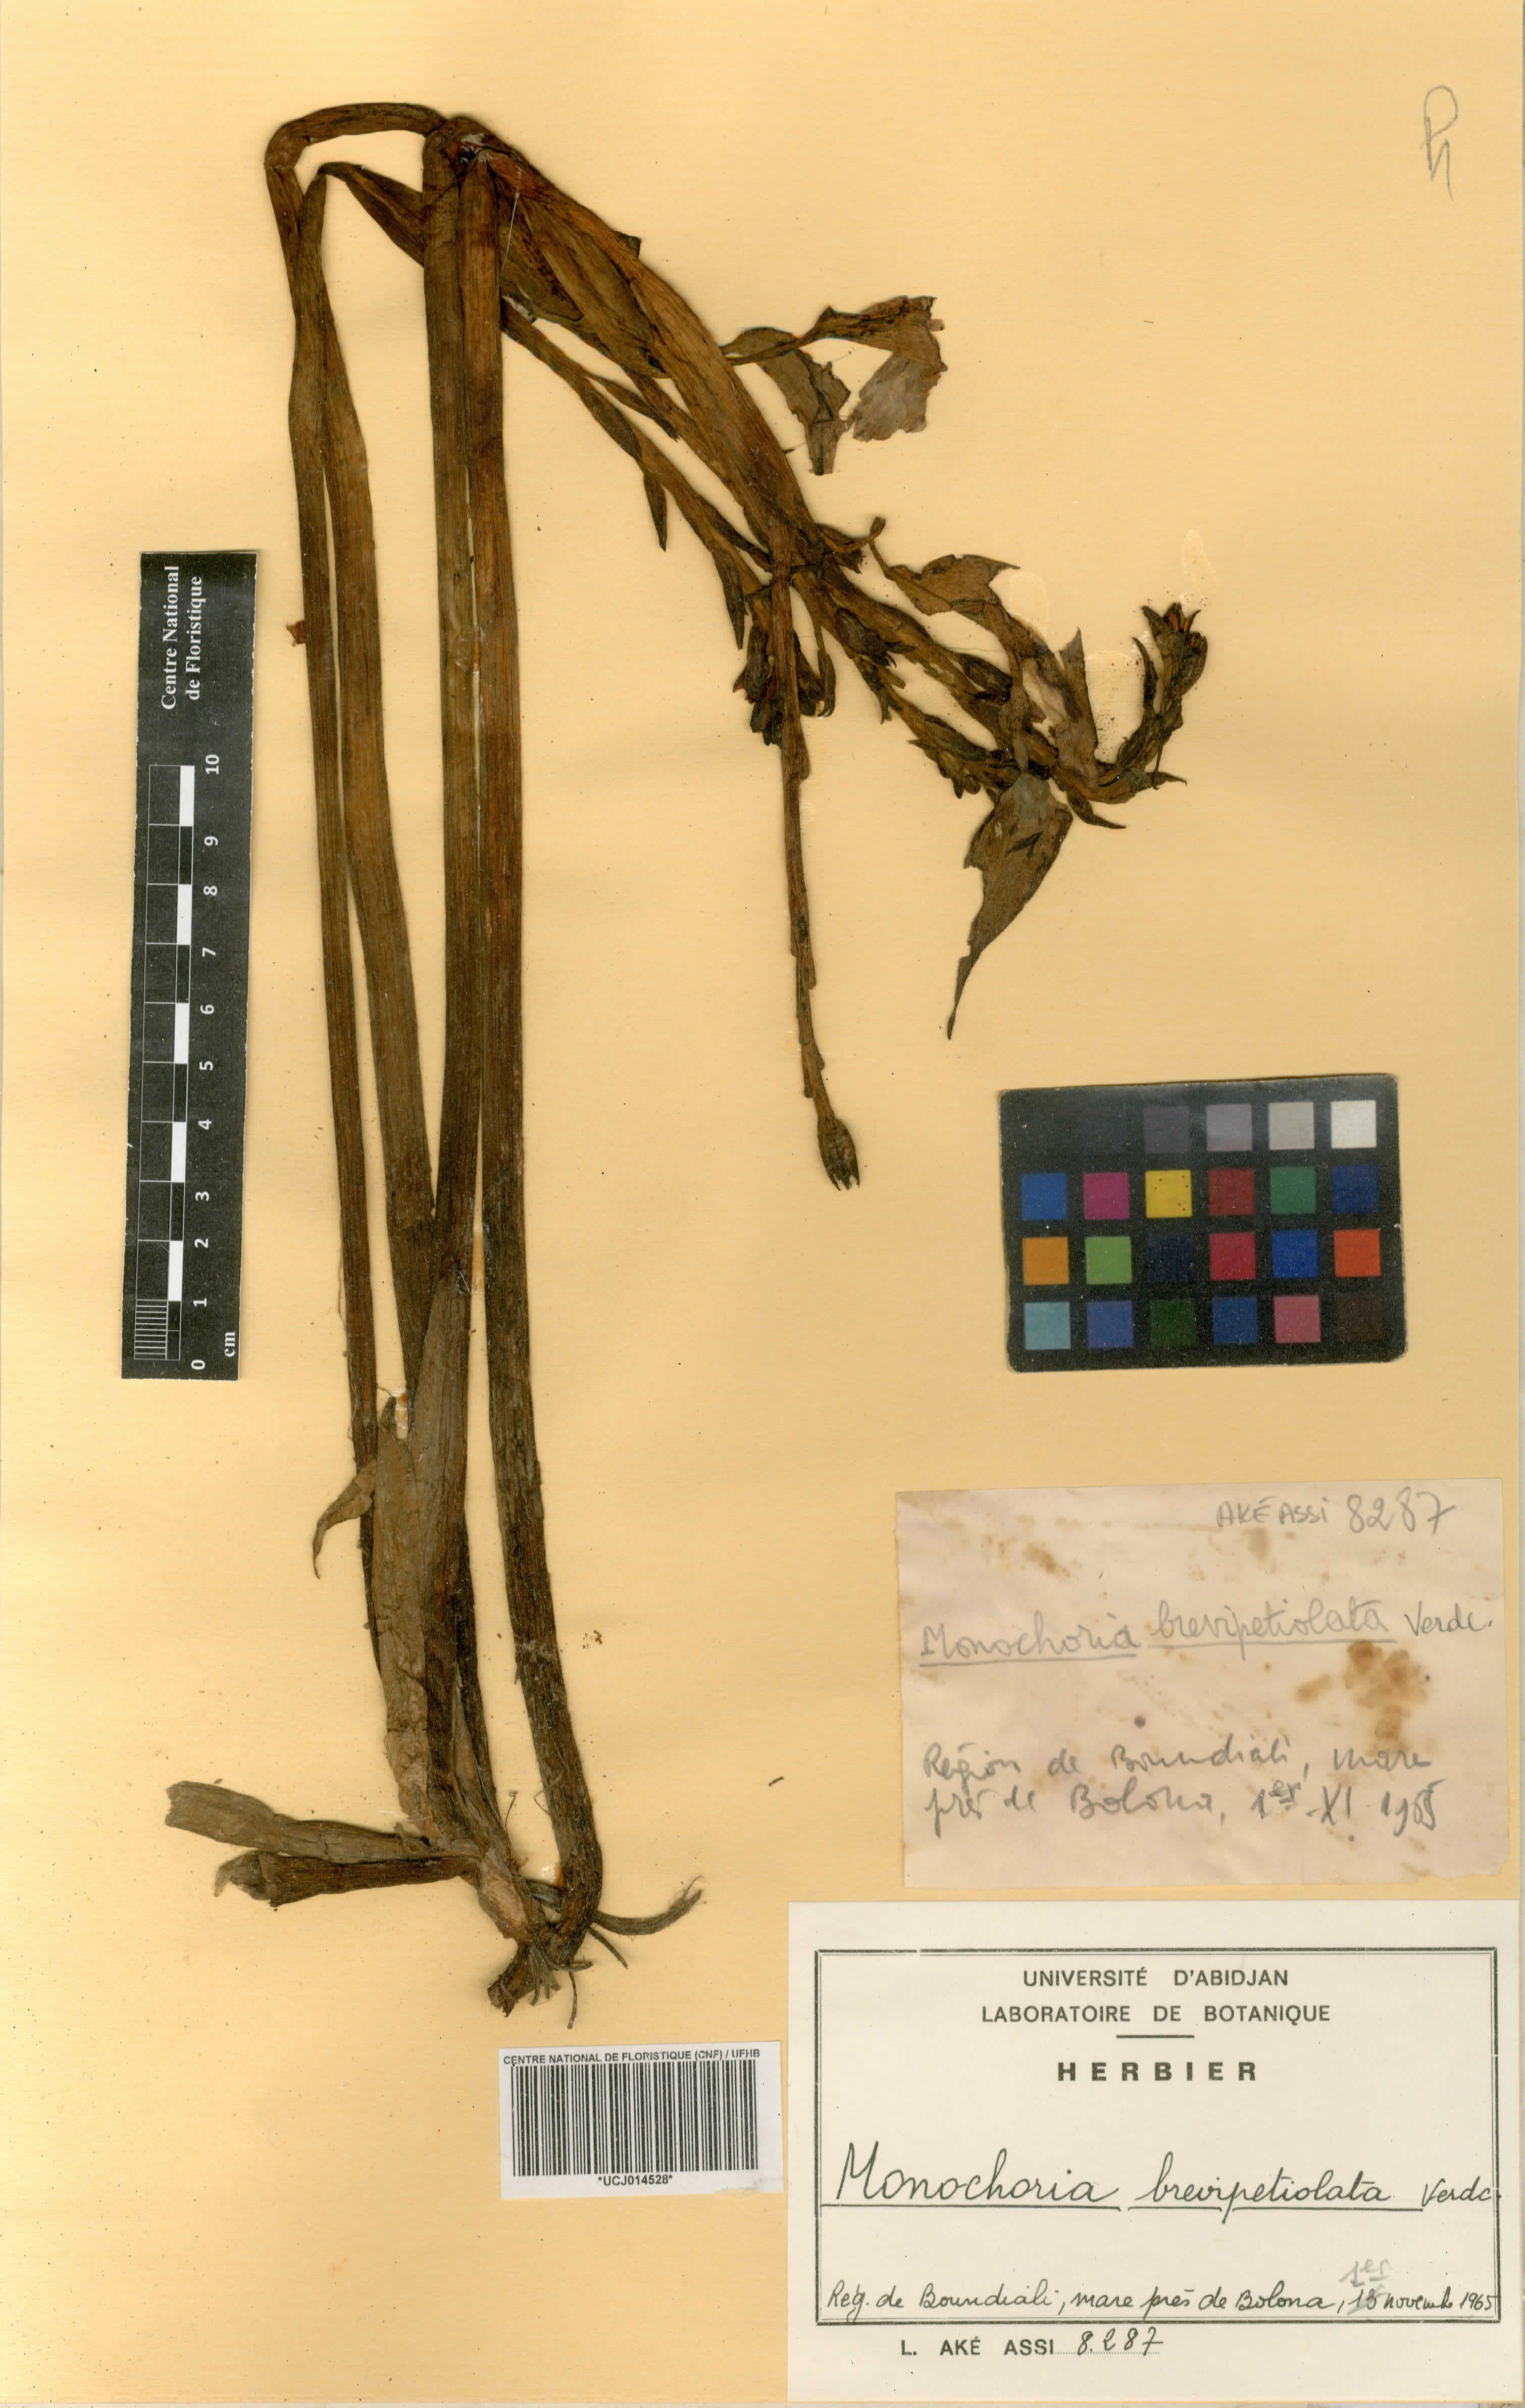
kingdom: Plantae
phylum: Tracheophyta
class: Liliopsida
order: Commelinales
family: Pontederiaceae
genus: Pontederia
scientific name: Pontederia brevipetiolata
